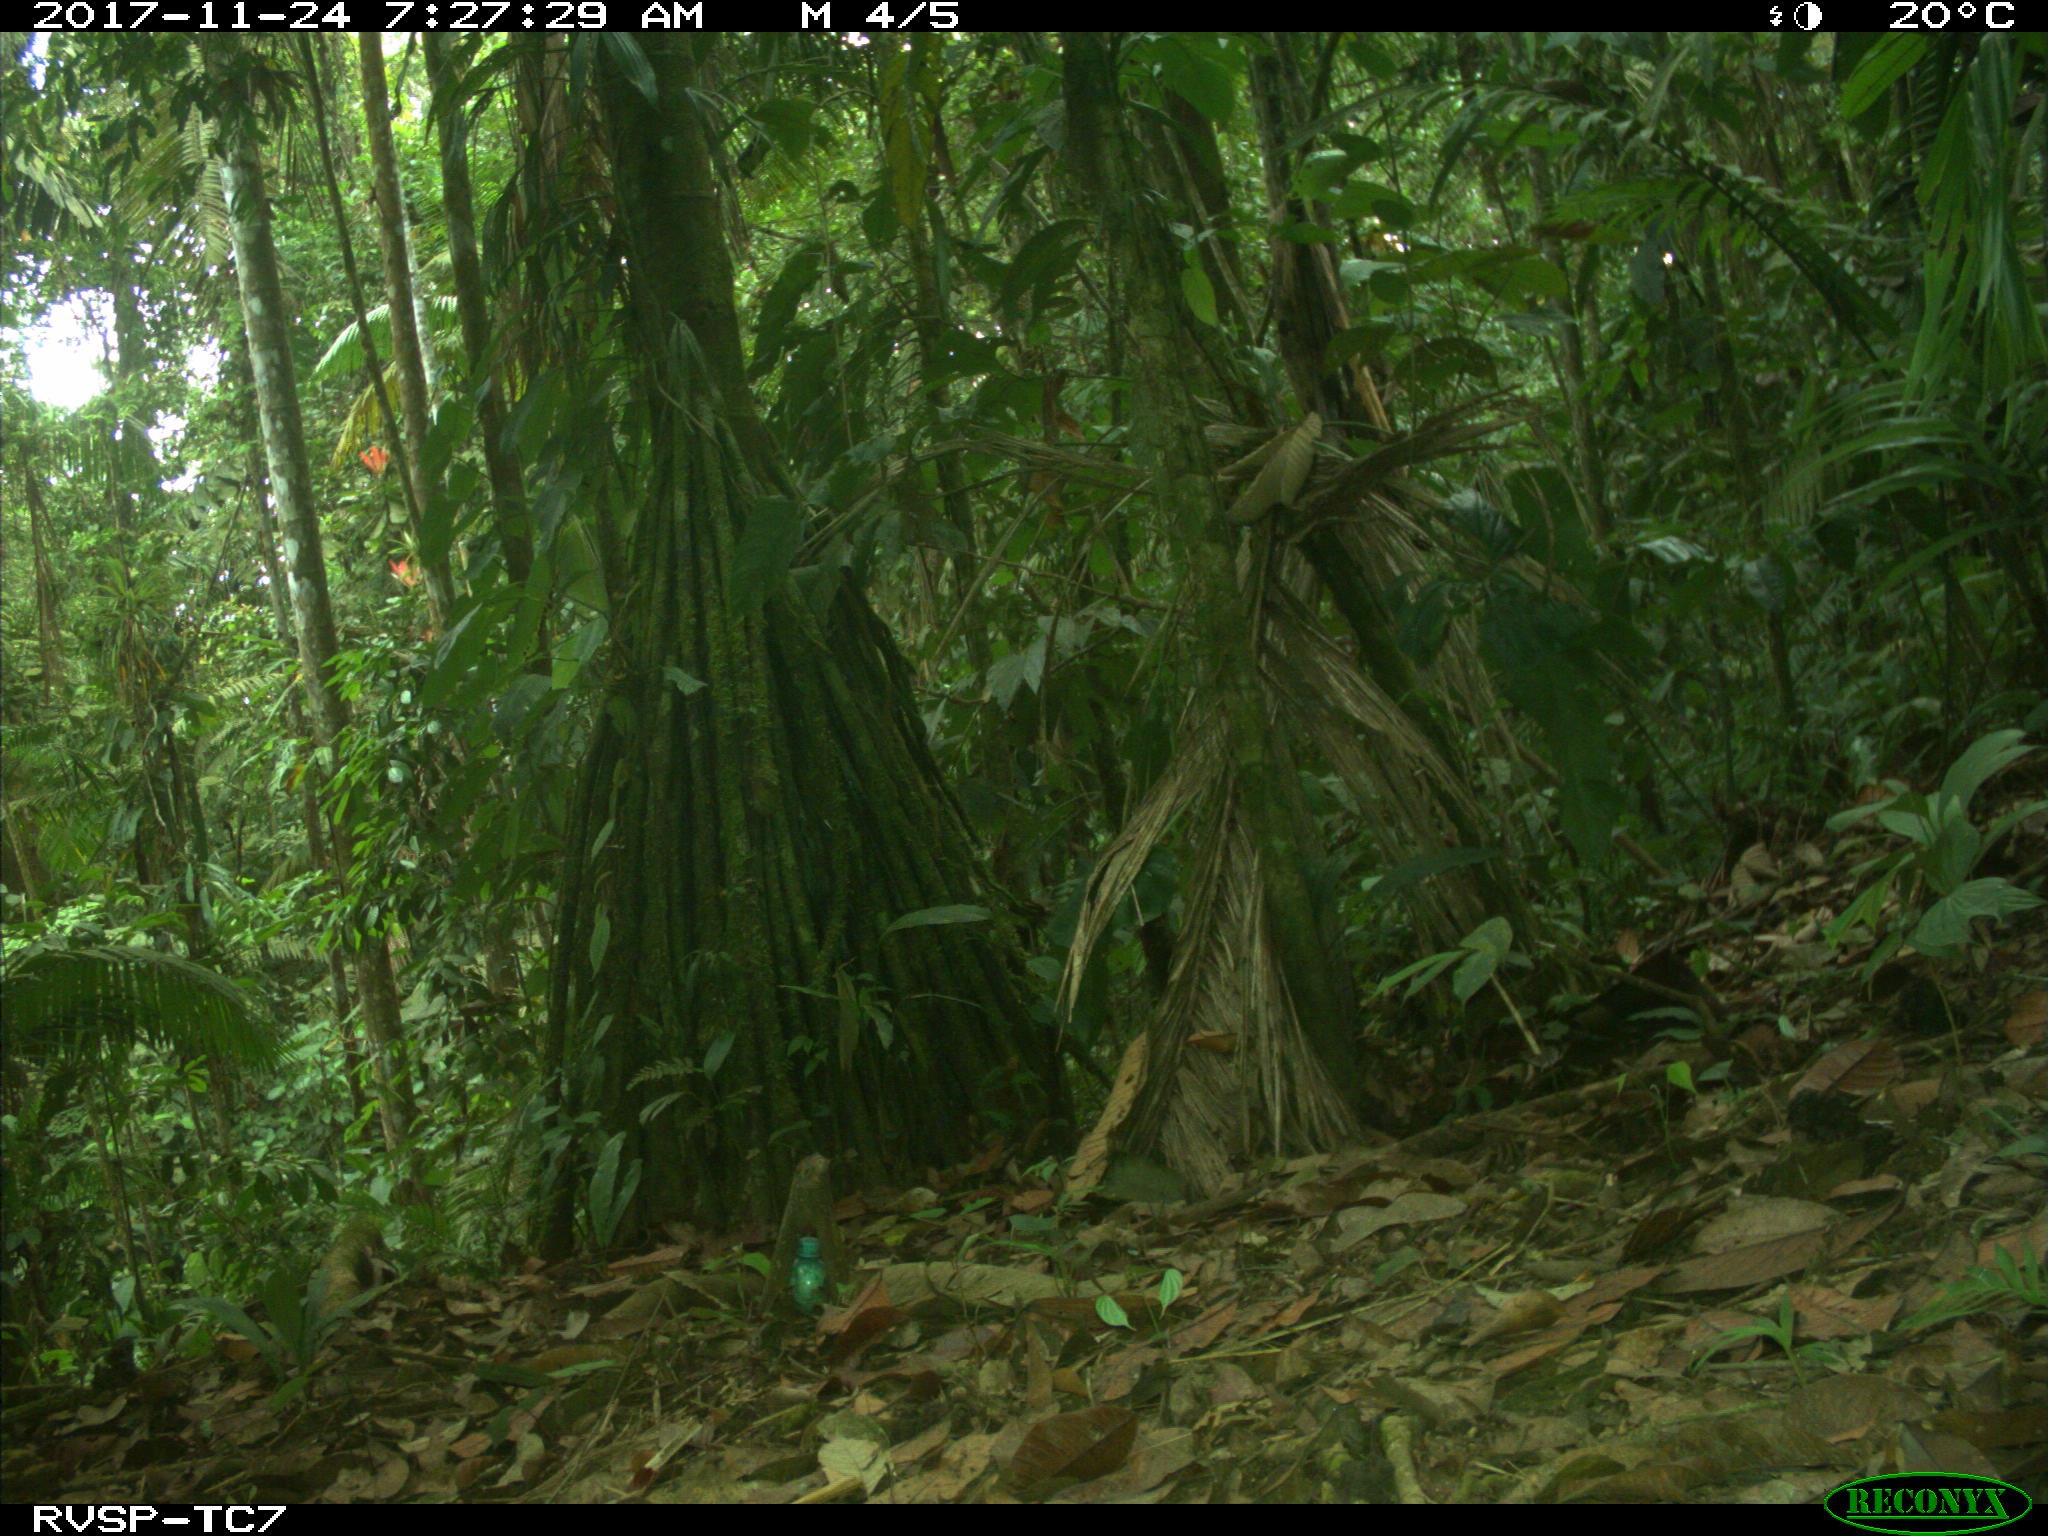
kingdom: Animalia
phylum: Chordata
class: Mammalia
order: Rodentia
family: Dasyproctidae
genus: Dasyprocta
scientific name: Dasyprocta punctata
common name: Central american agouti
